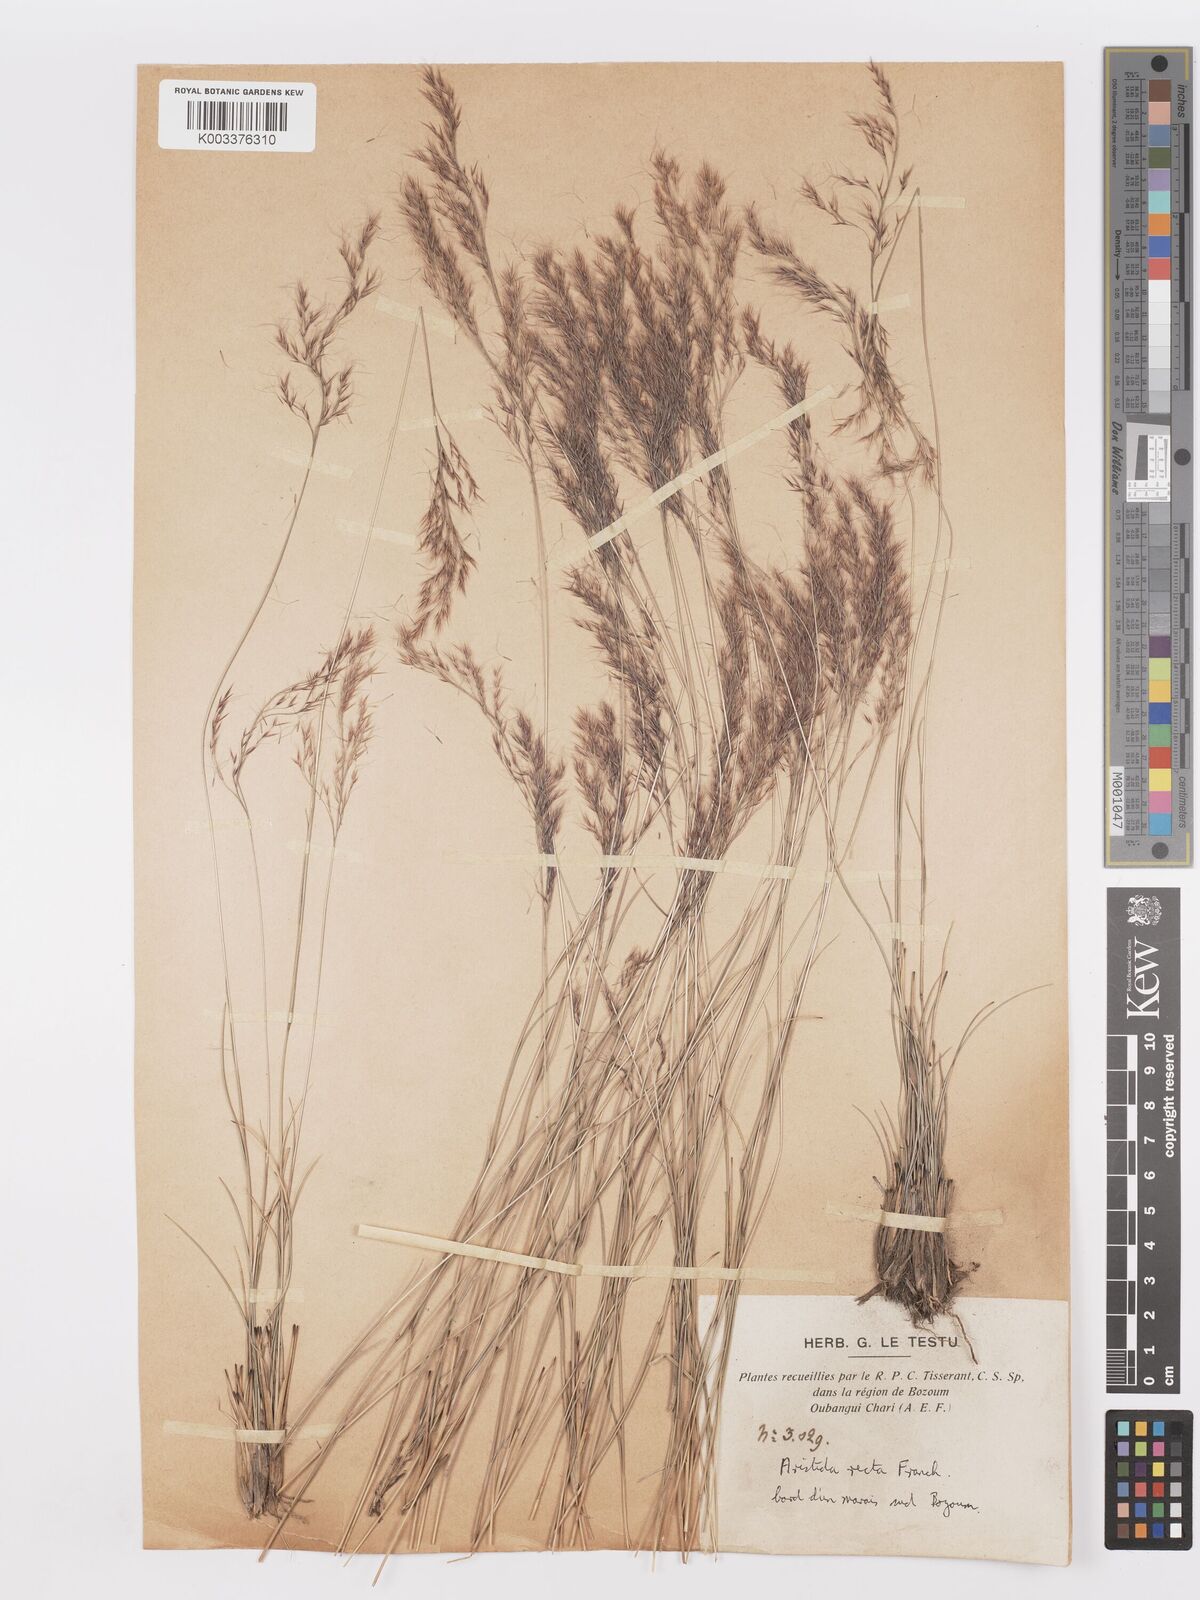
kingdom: Plantae
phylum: Tracheophyta
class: Liliopsida
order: Poales
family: Poaceae
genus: Aristida
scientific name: Aristida recta
